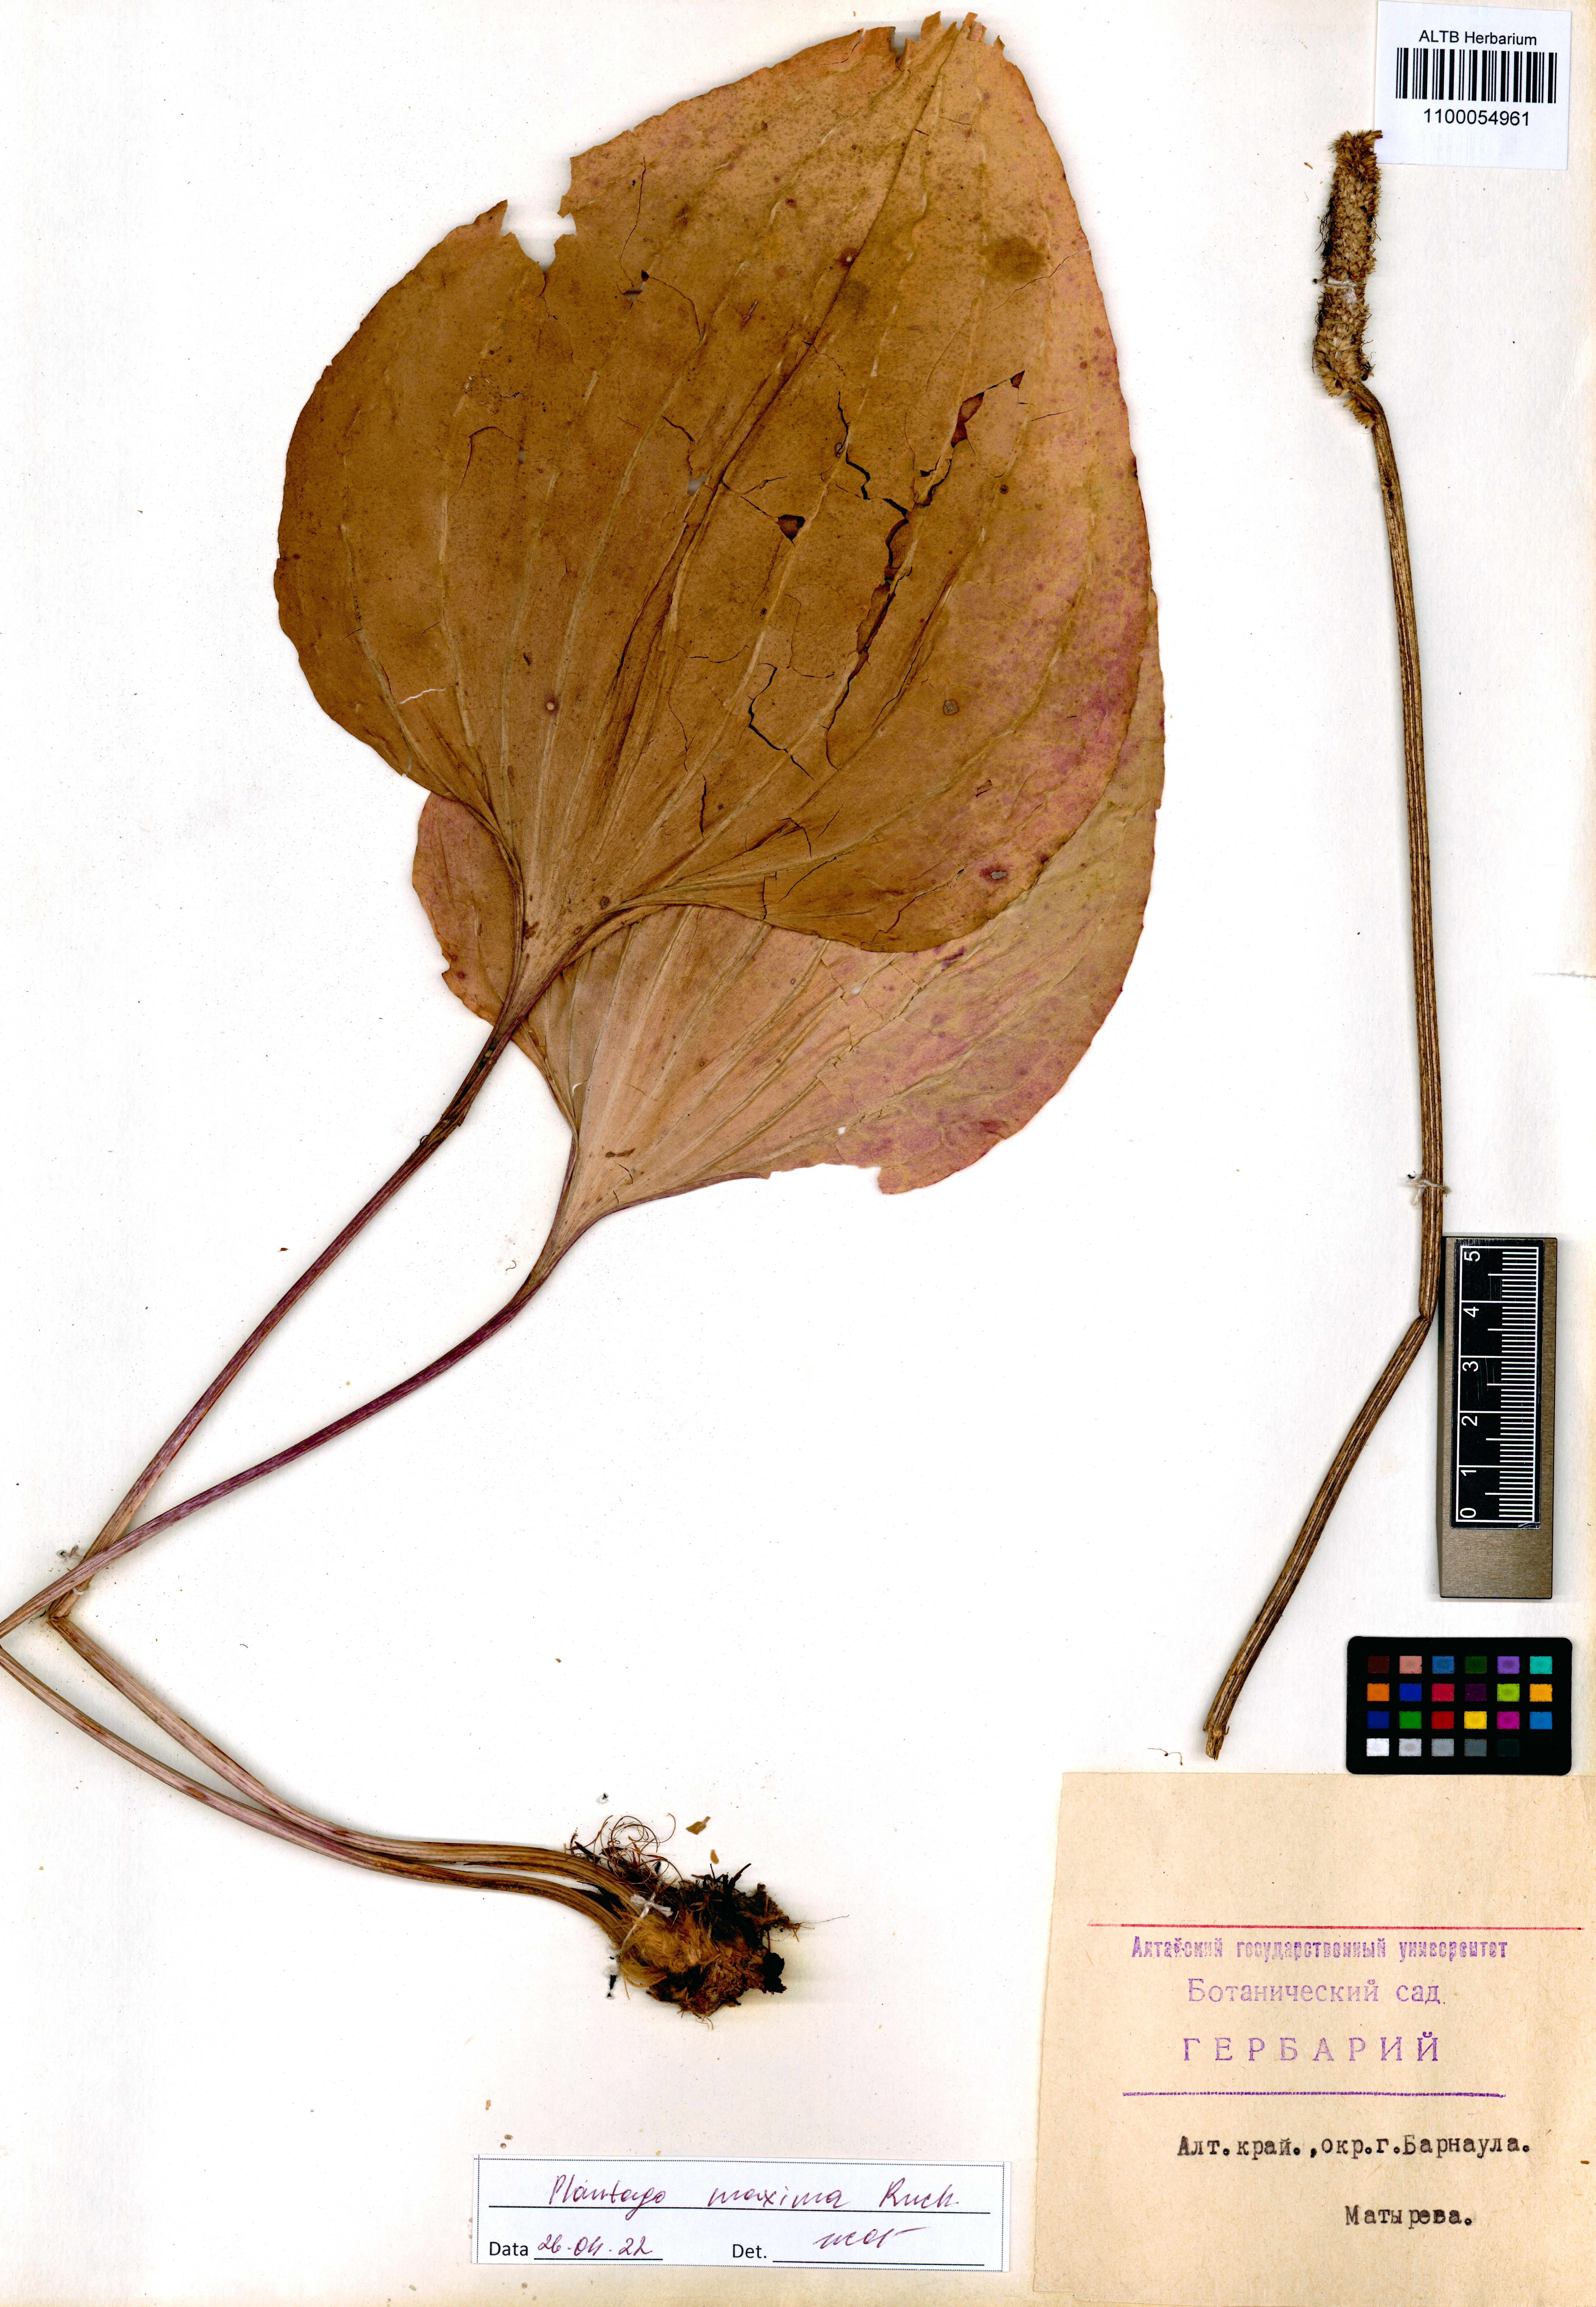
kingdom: Plantae
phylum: Tracheophyta
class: Magnoliopsida
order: Lamiales
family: Plantaginaceae
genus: Plantago
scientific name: Plantago maxima
